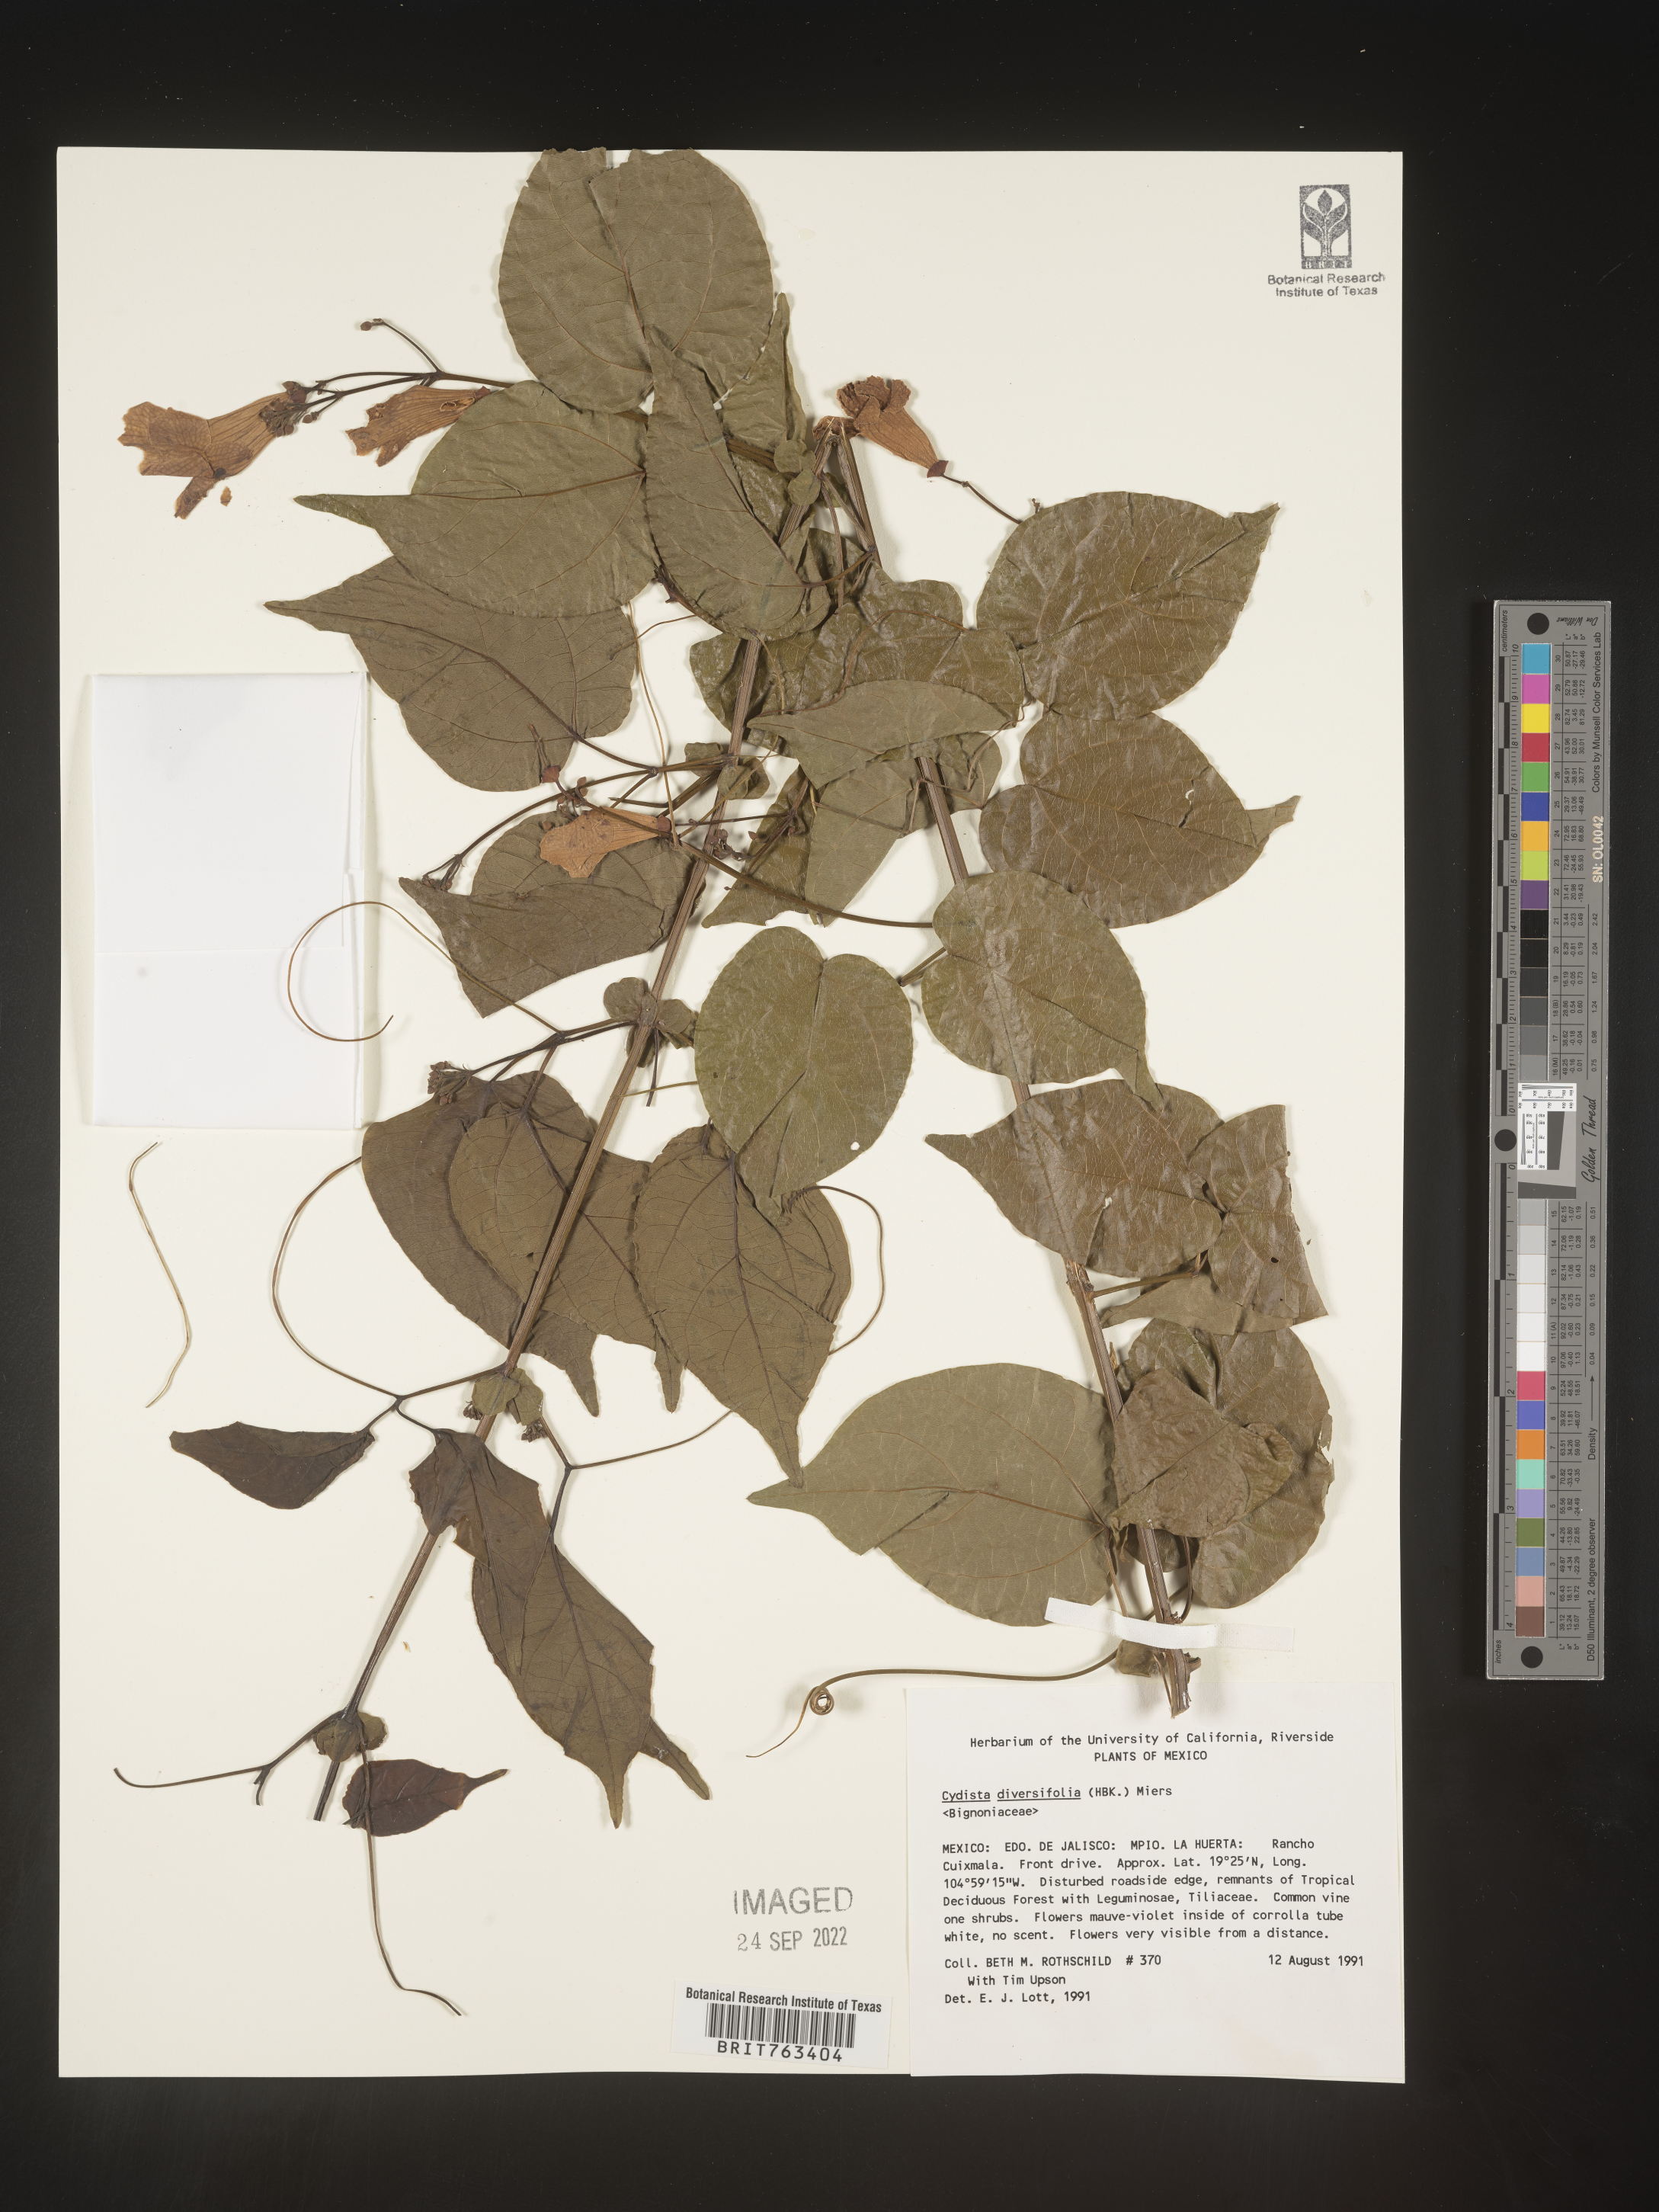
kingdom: Plantae
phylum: Tracheophyta
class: Magnoliopsida
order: Lamiales
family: Bignoniaceae
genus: Bignonia
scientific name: Bignonia
